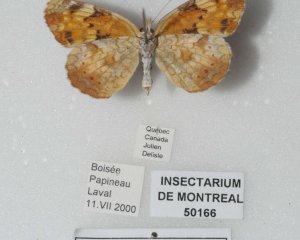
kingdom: Animalia
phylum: Arthropoda
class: Insecta
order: Lepidoptera
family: Nymphalidae
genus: Phyciodes
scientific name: Phyciodes tharos
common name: Northern Crescent
